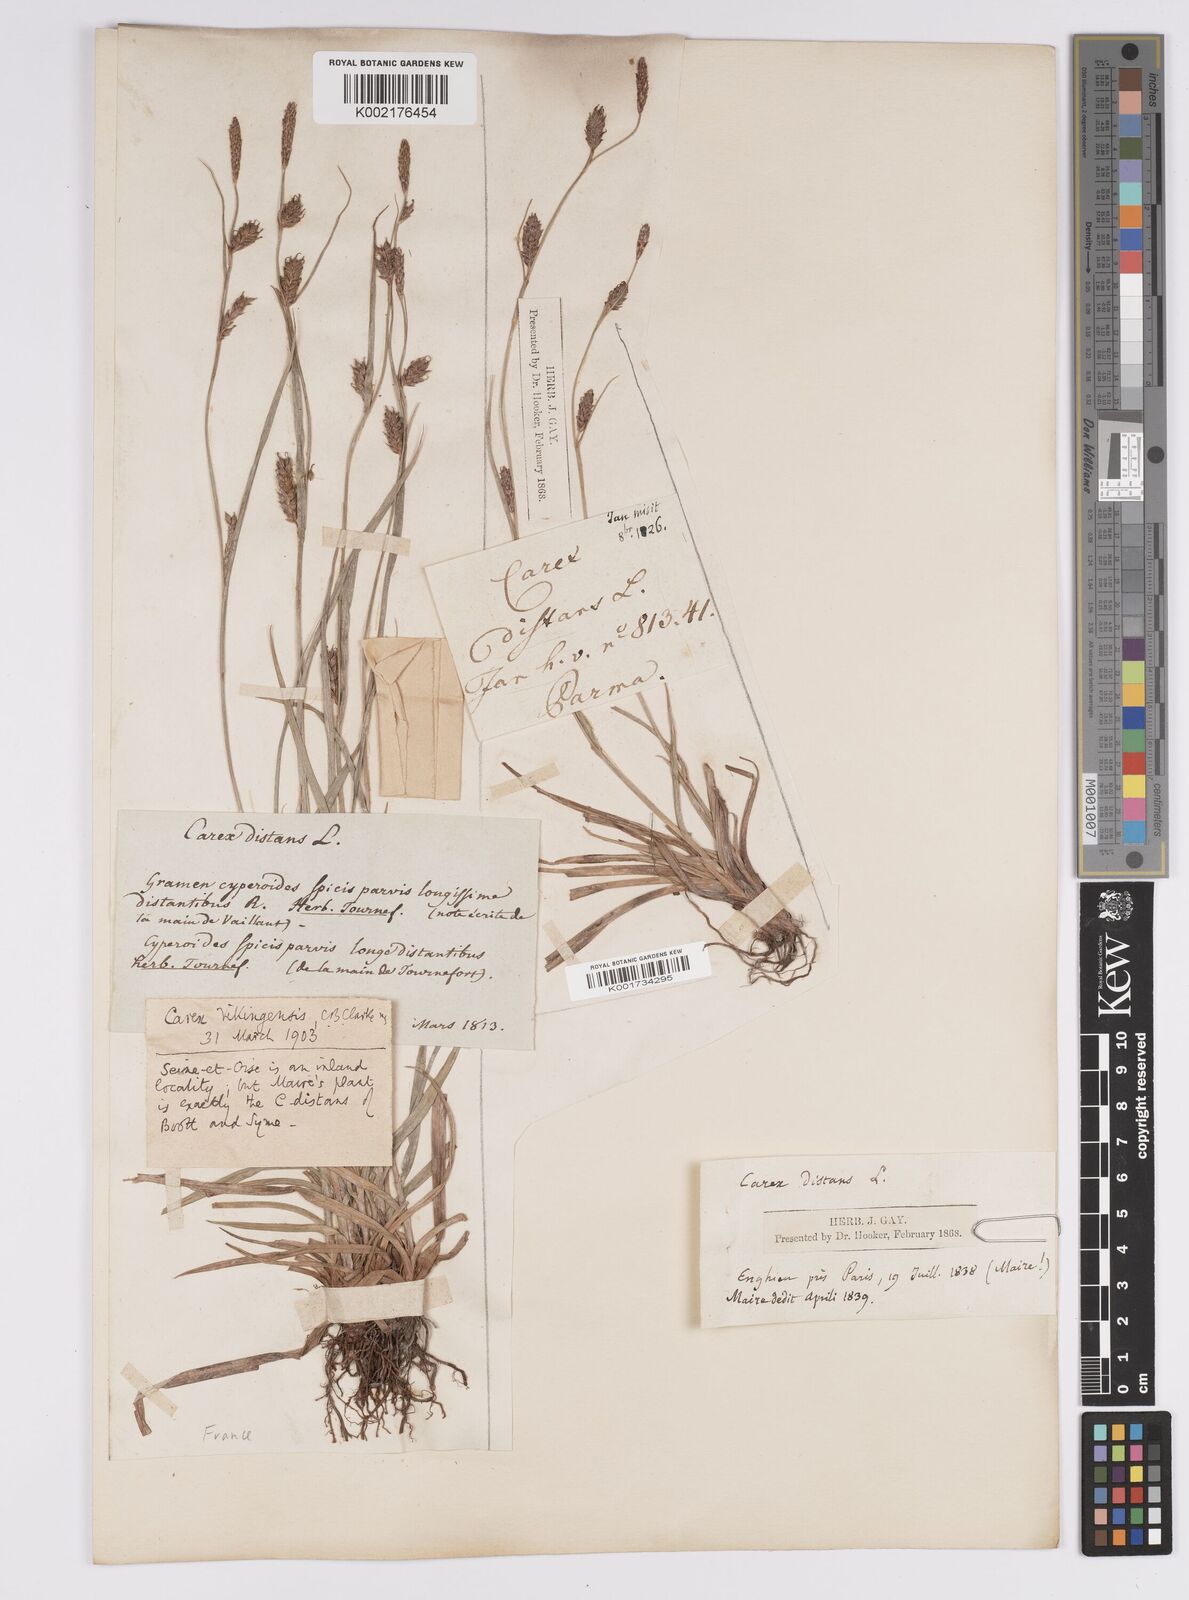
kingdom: Plantae
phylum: Tracheophyta
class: Liliopsida
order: Poales
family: Cyperaceae
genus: Carex
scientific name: Carex distans
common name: Distant sedge
